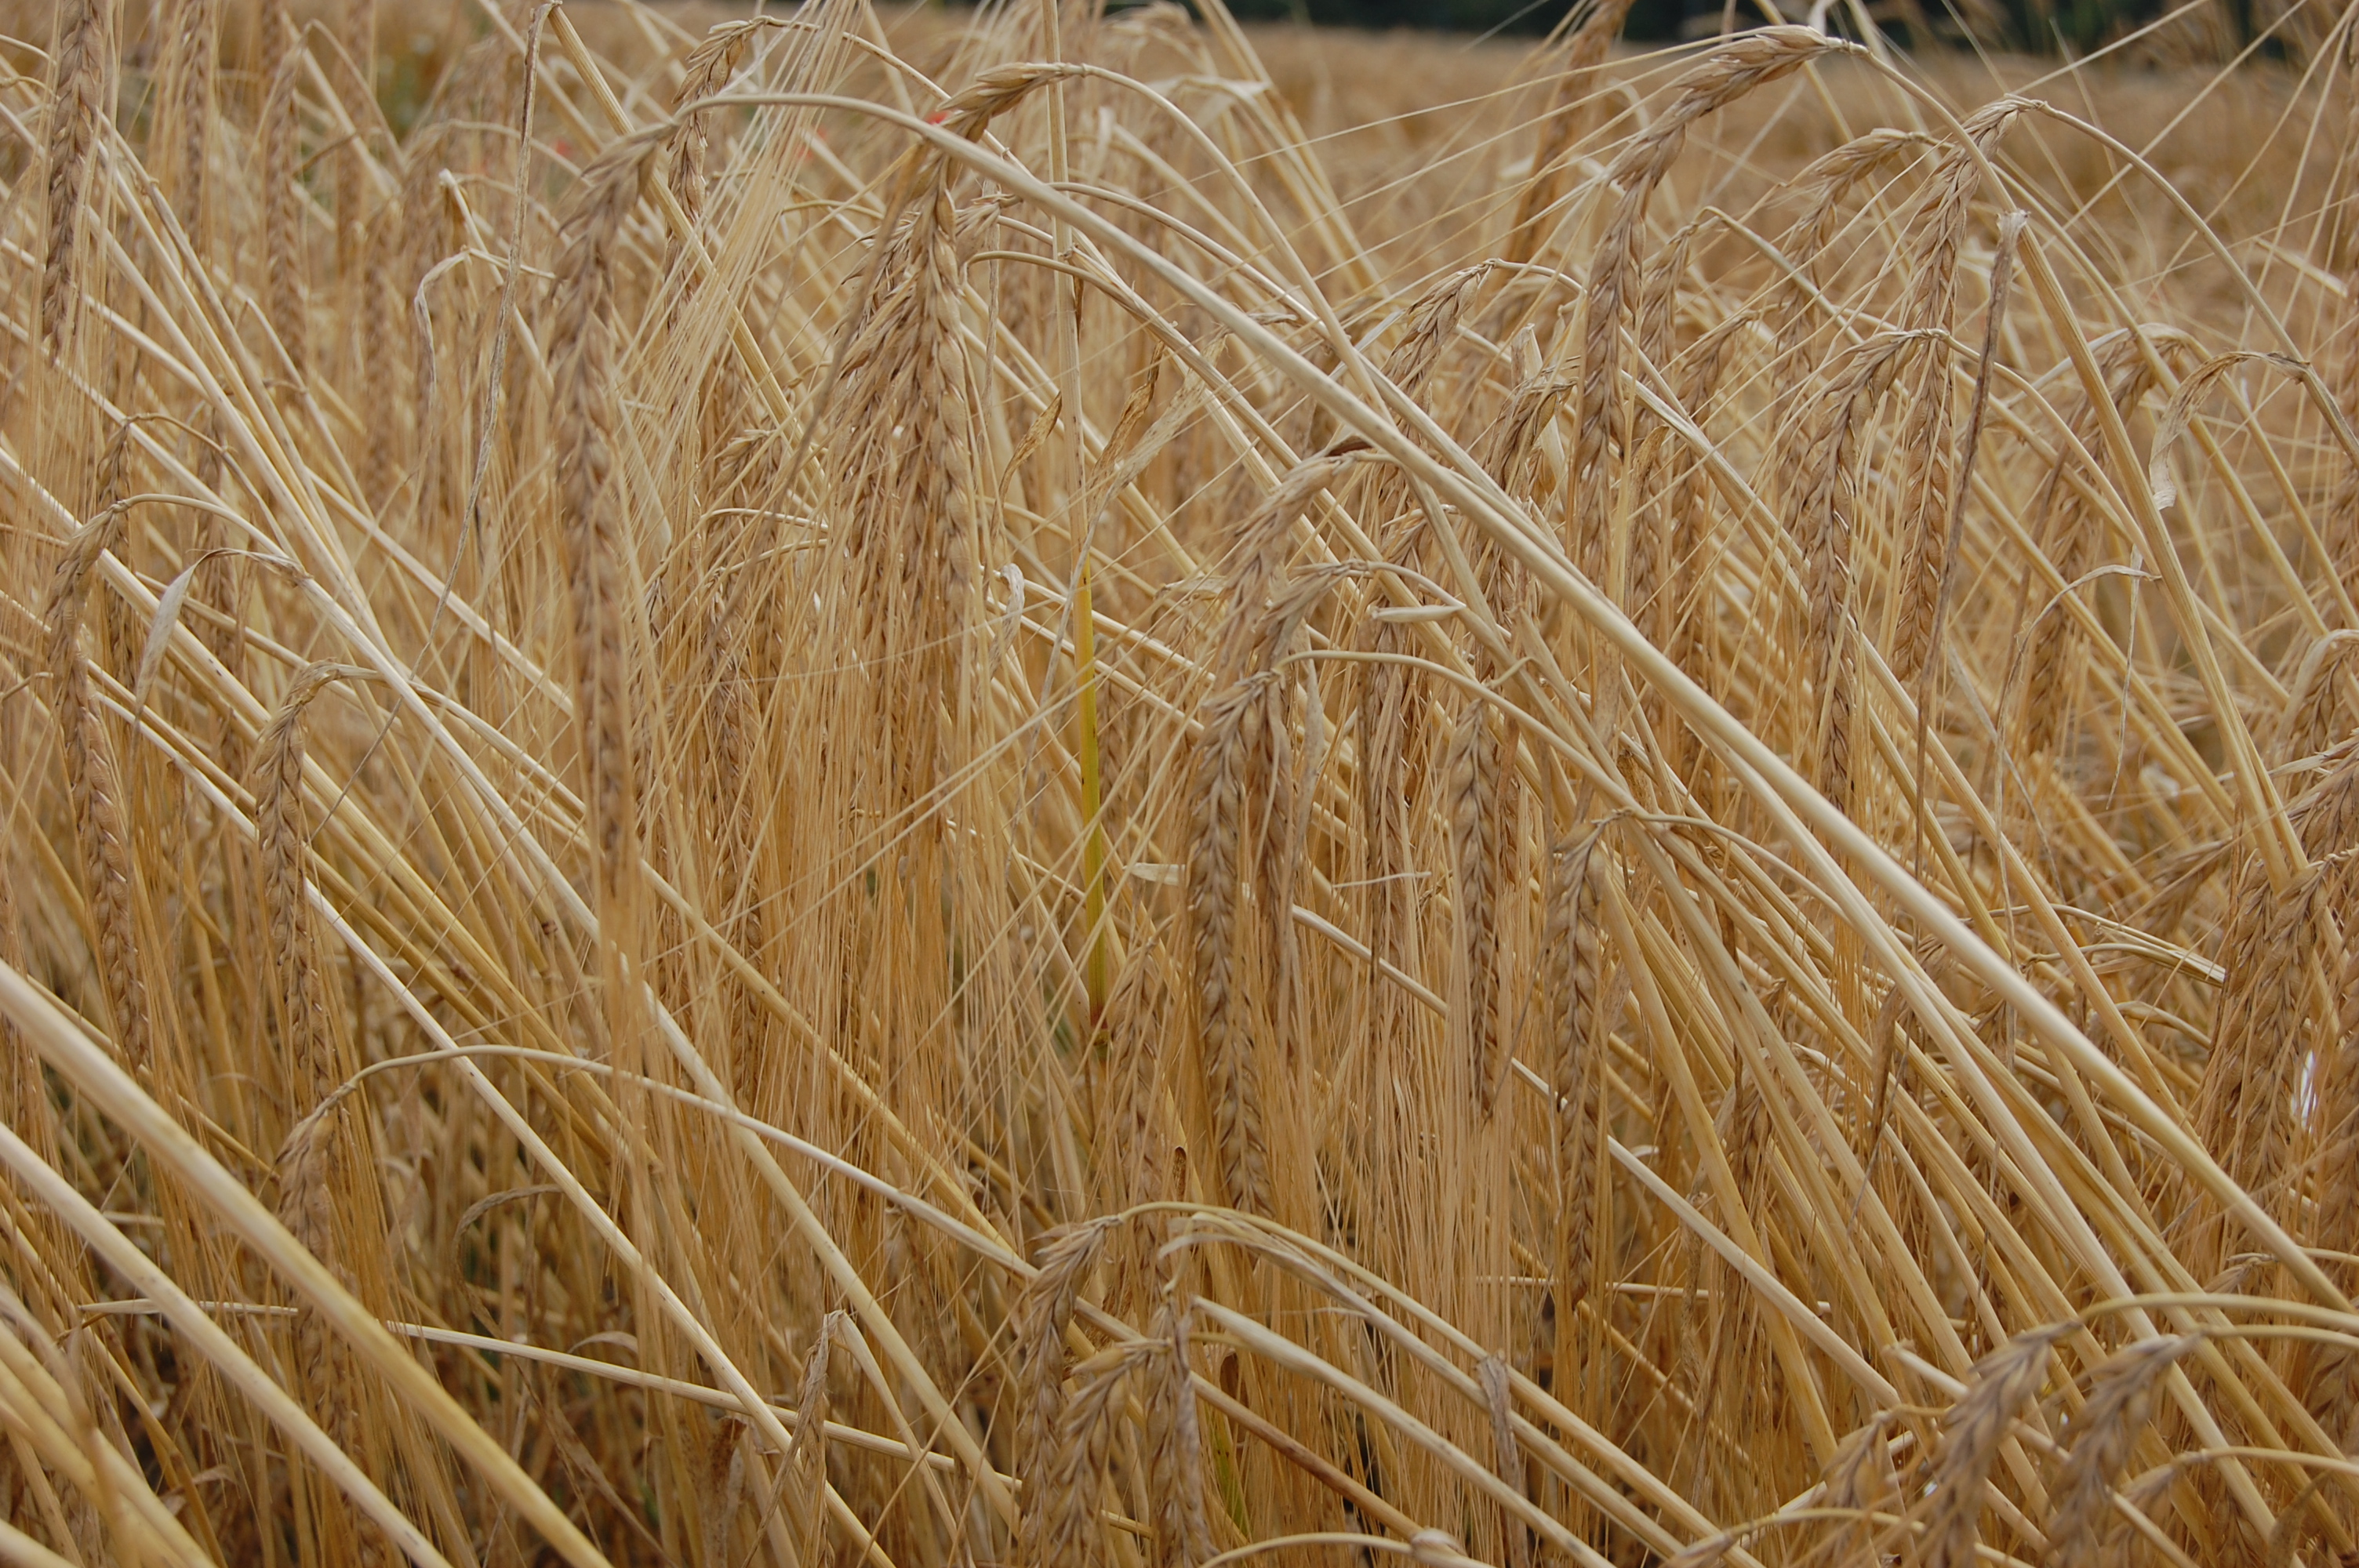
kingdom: Plantae
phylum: Tracheophyta
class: Liliopsida
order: Poales
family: Poaceae
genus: Hordeum
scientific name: Hordeum vulgare
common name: Common barley
